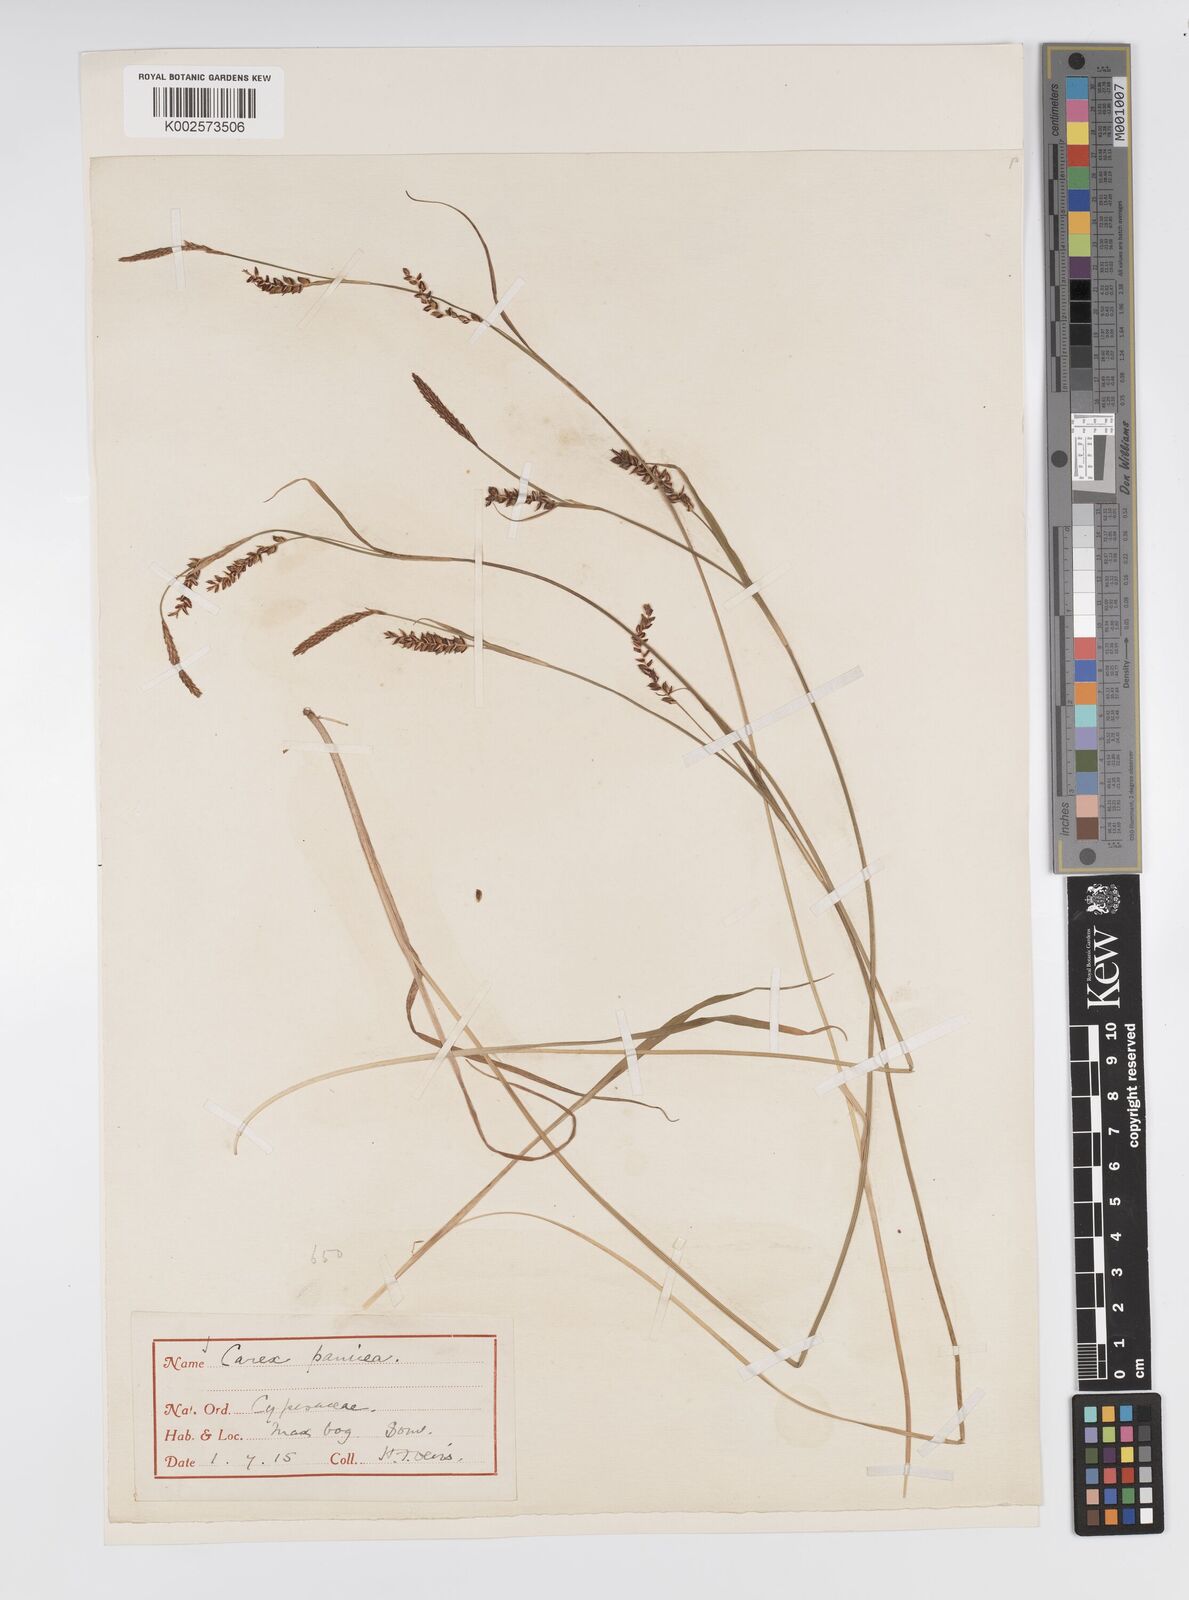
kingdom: Plantae
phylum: Tracheophyta
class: Liliopsida
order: Poales
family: Cyperaceae
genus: Carex
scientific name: Carex panicea
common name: Carnation sedge
